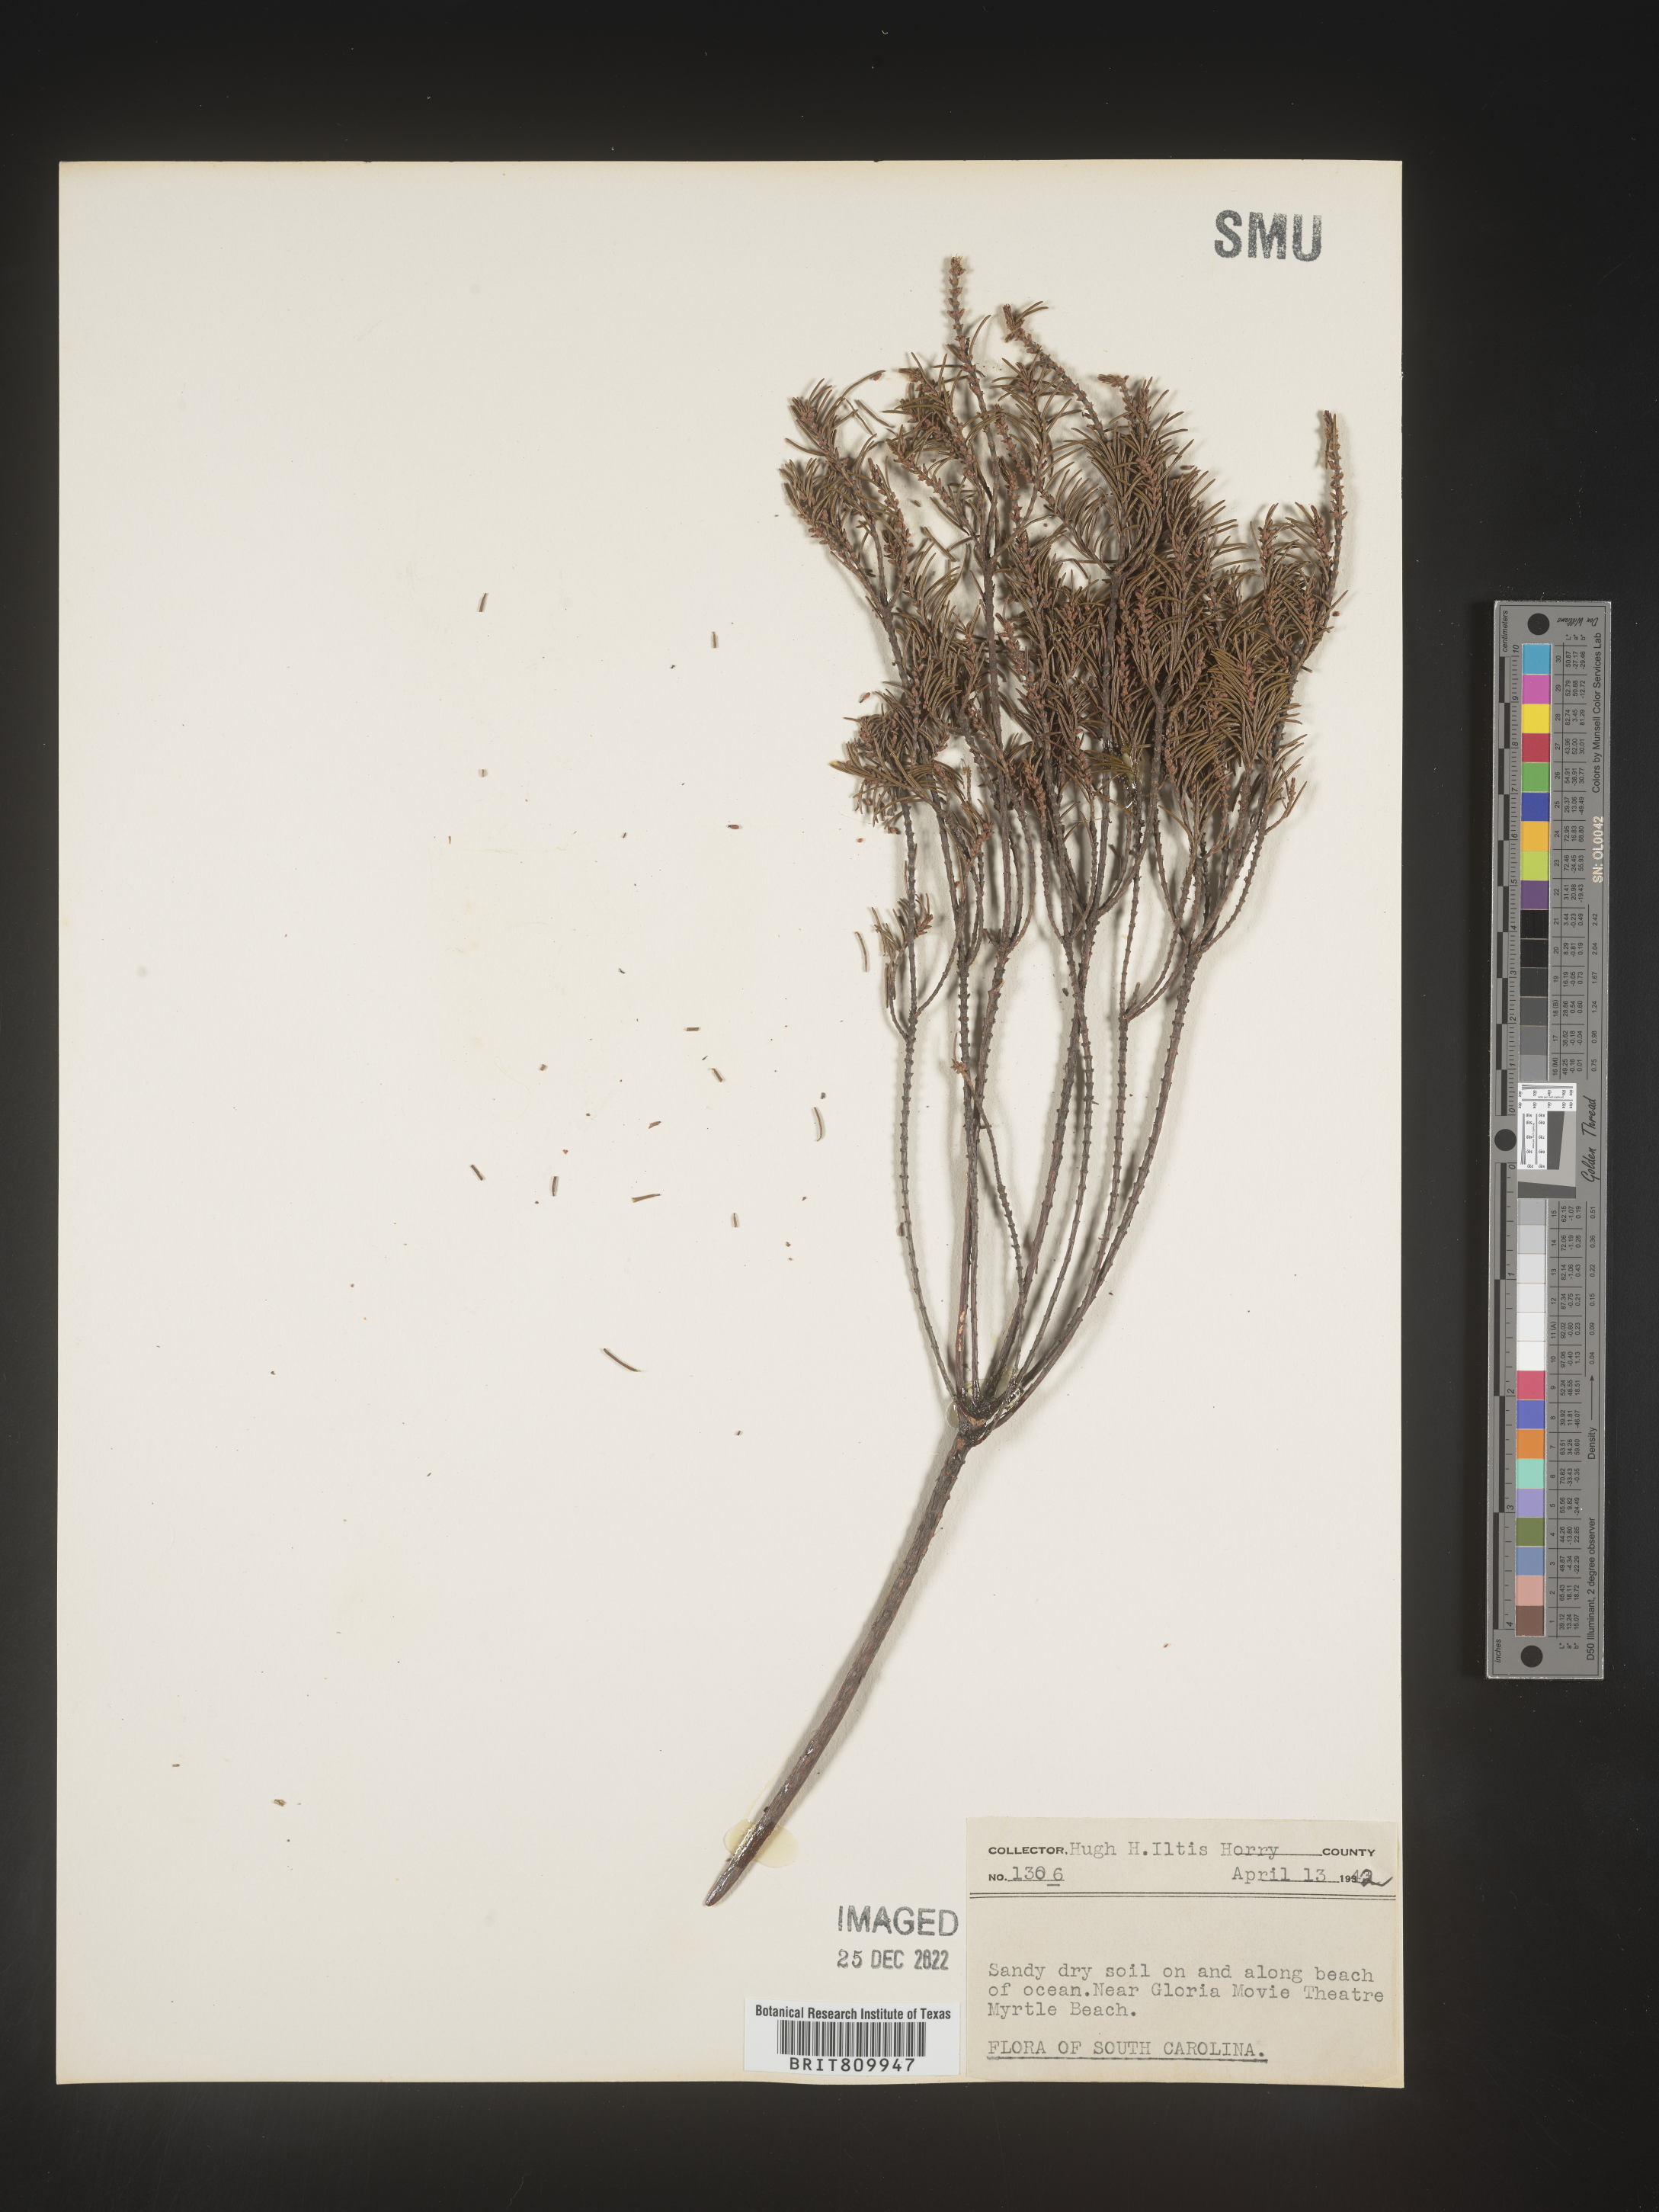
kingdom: Plantae
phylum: Tracheophyta
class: Magnoliopsida
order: Ericales
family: Ericaceae
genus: Ceratiola
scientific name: Ceratiola ericoides
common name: Sandhill-rosemary
